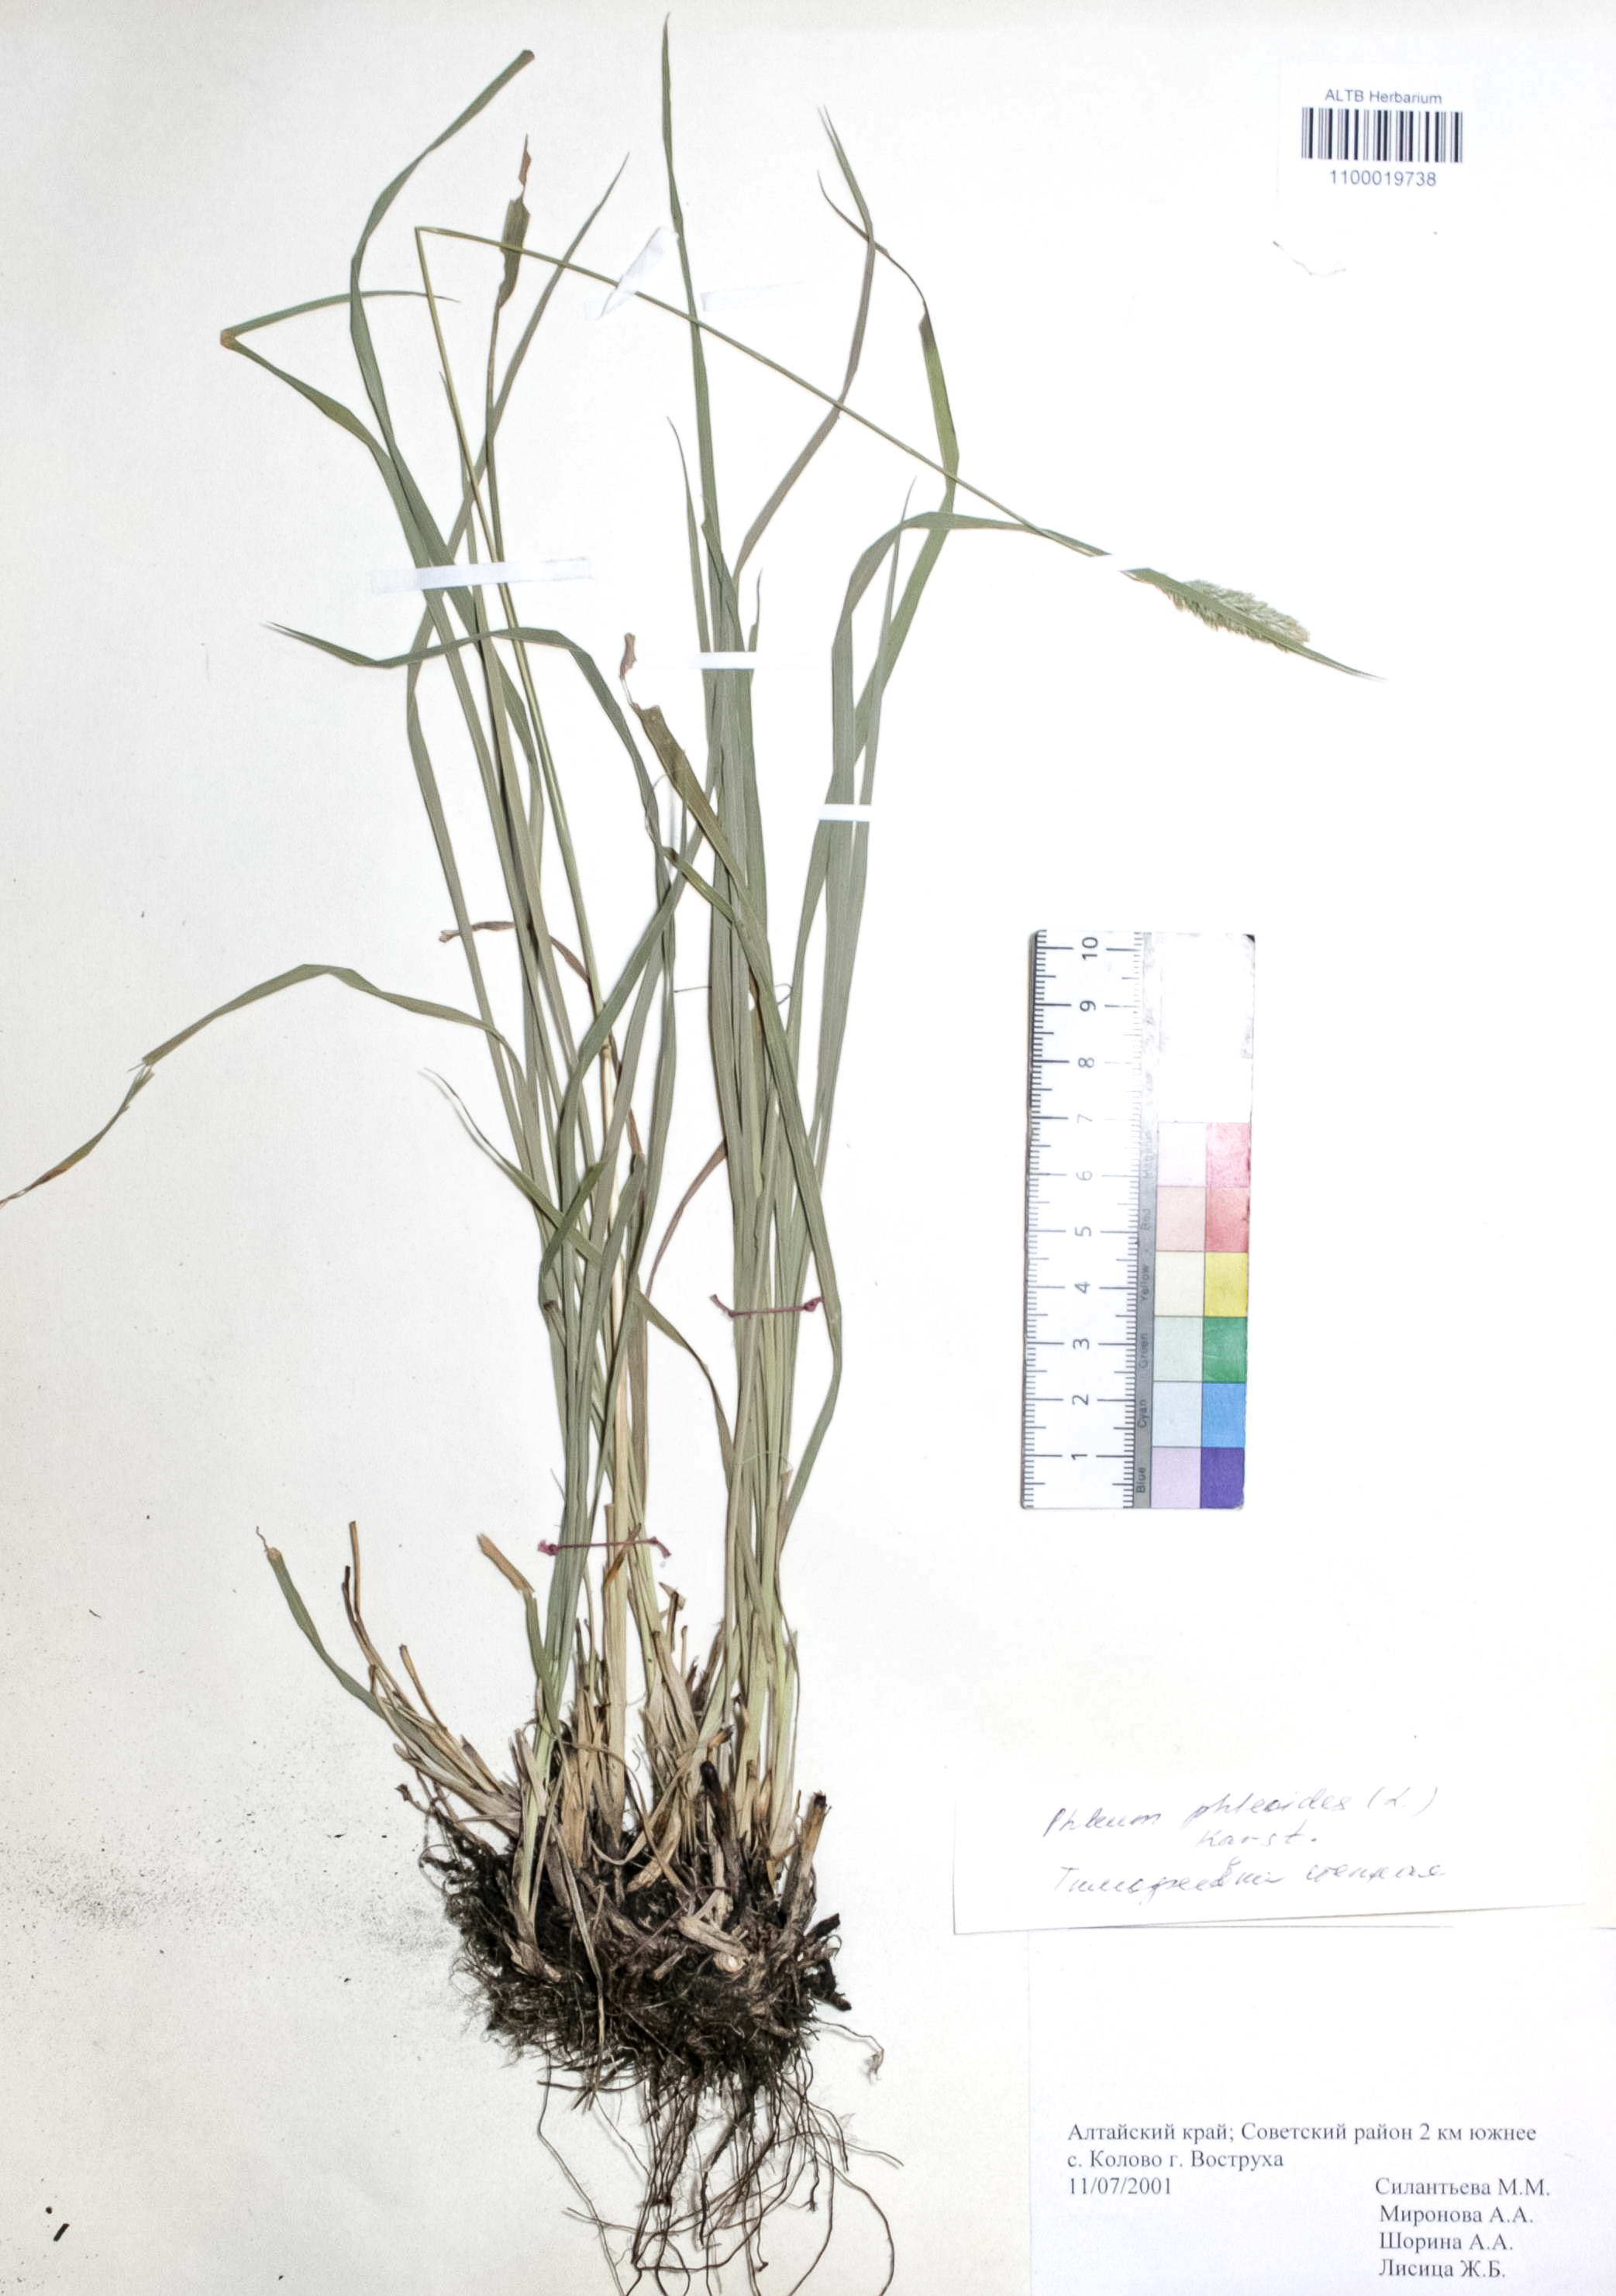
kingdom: Plantae
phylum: Tracheophyta
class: Liliopsida
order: Poales
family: Poaceae
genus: Phleum
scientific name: Phleum phleoides
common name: Purple-stem cat's-tail
